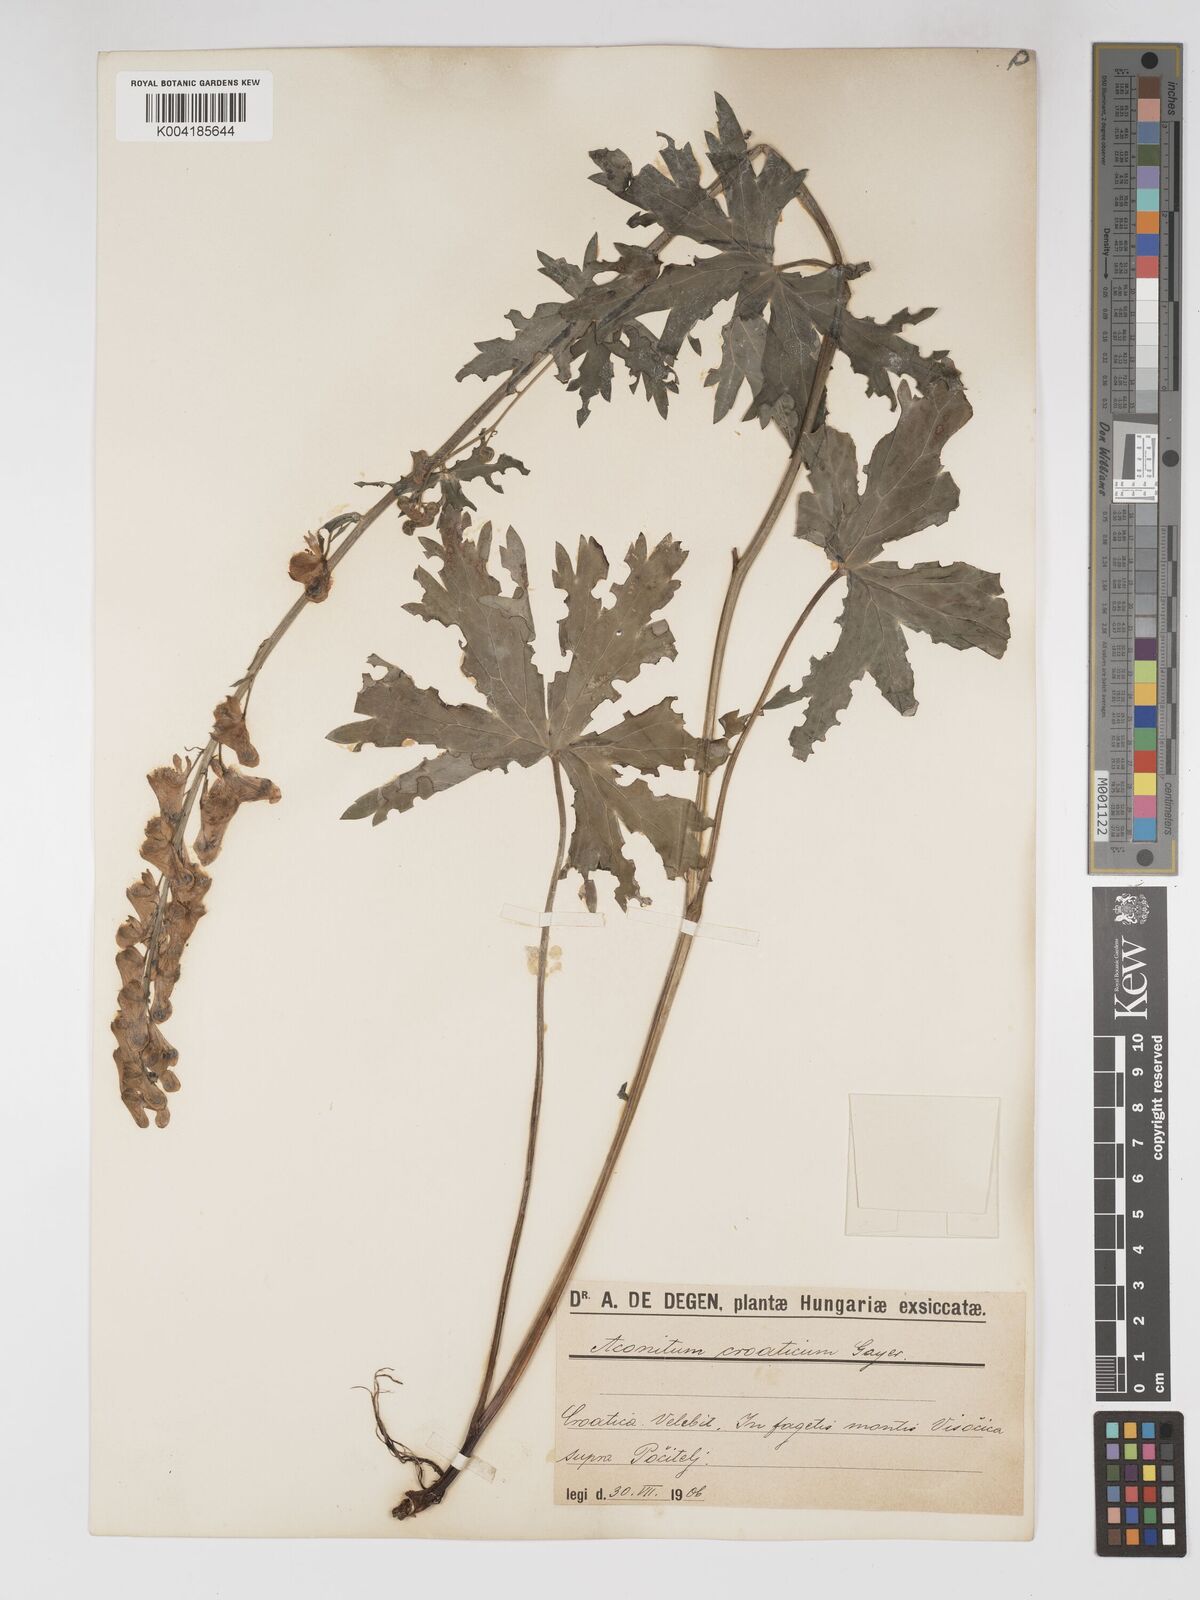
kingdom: Plantae
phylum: Tracheophyta
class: Magnoliopsida
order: Ranunculales
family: Ranunculaceae
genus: Aconitum
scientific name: Aconitum lycoctonum
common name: Wolf's-bane
